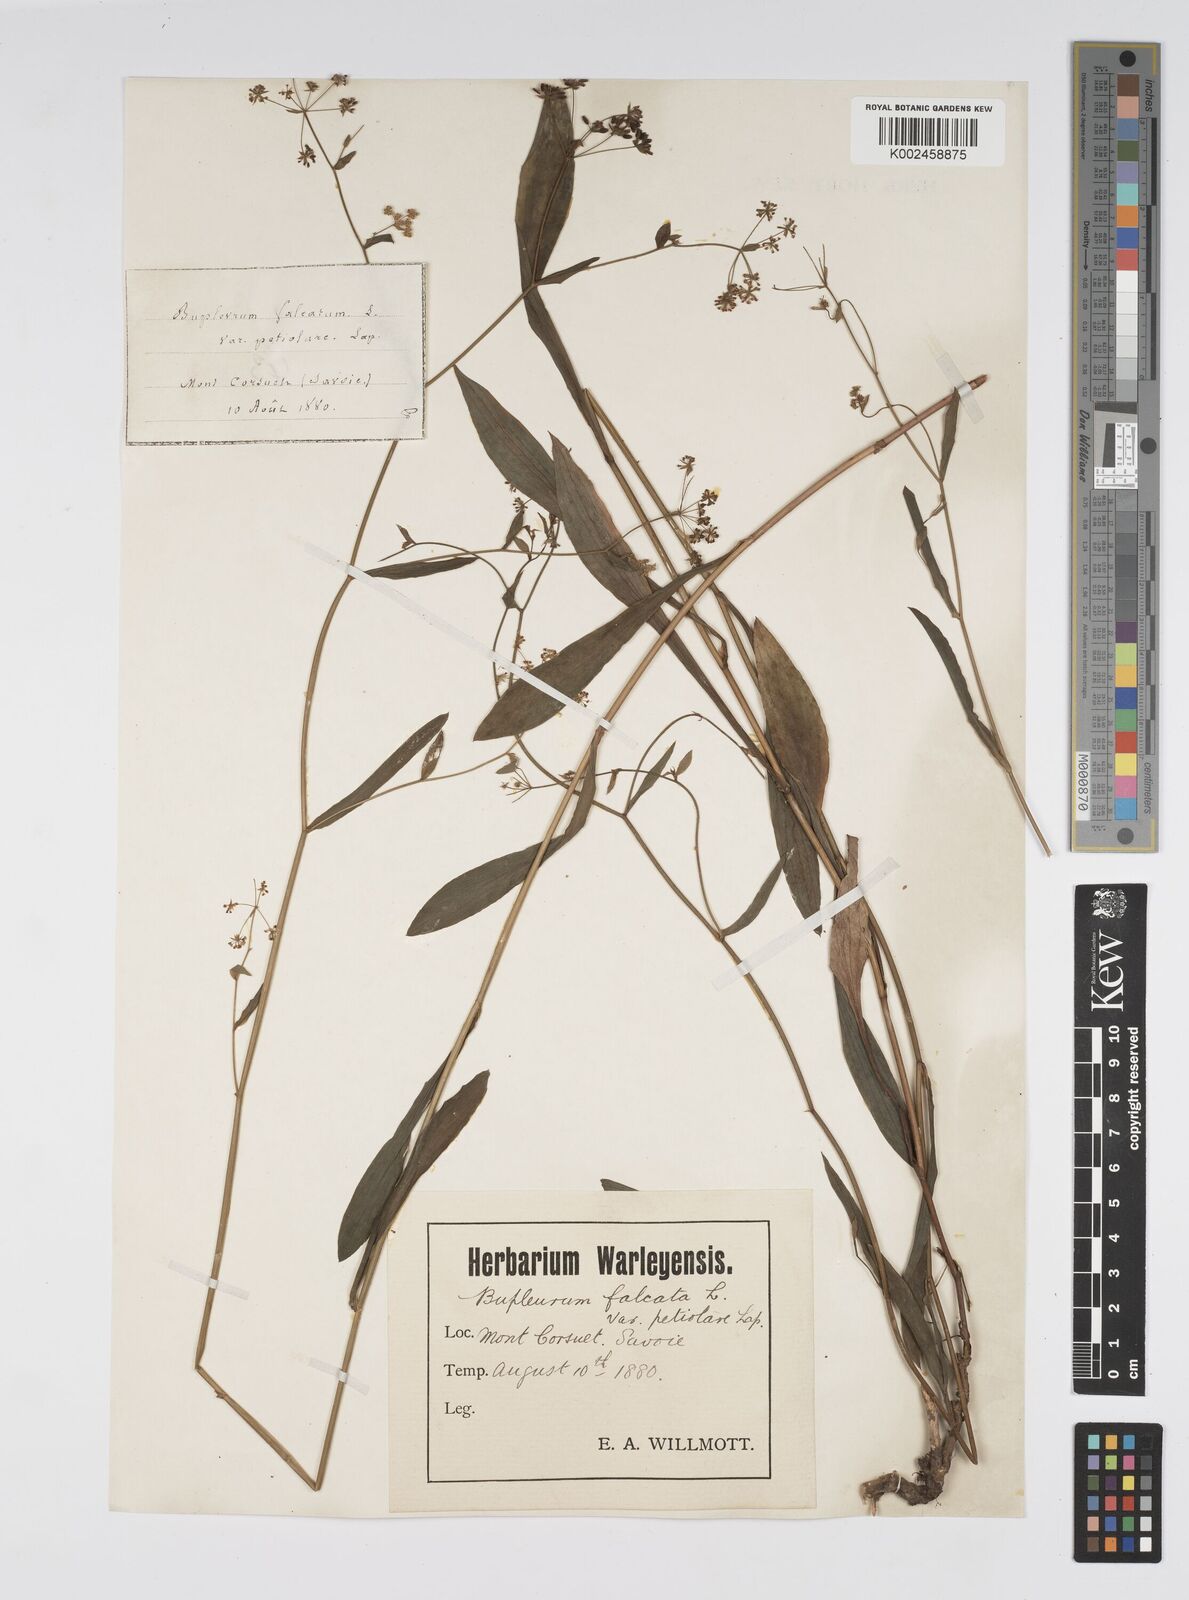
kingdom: Plantae
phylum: Tracheophyta
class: Magnoliopsida
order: Apiales
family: Apiaceae
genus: Bupleurum
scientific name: Bupleurum falcatum
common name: Sickle-leaved hare's-ear
